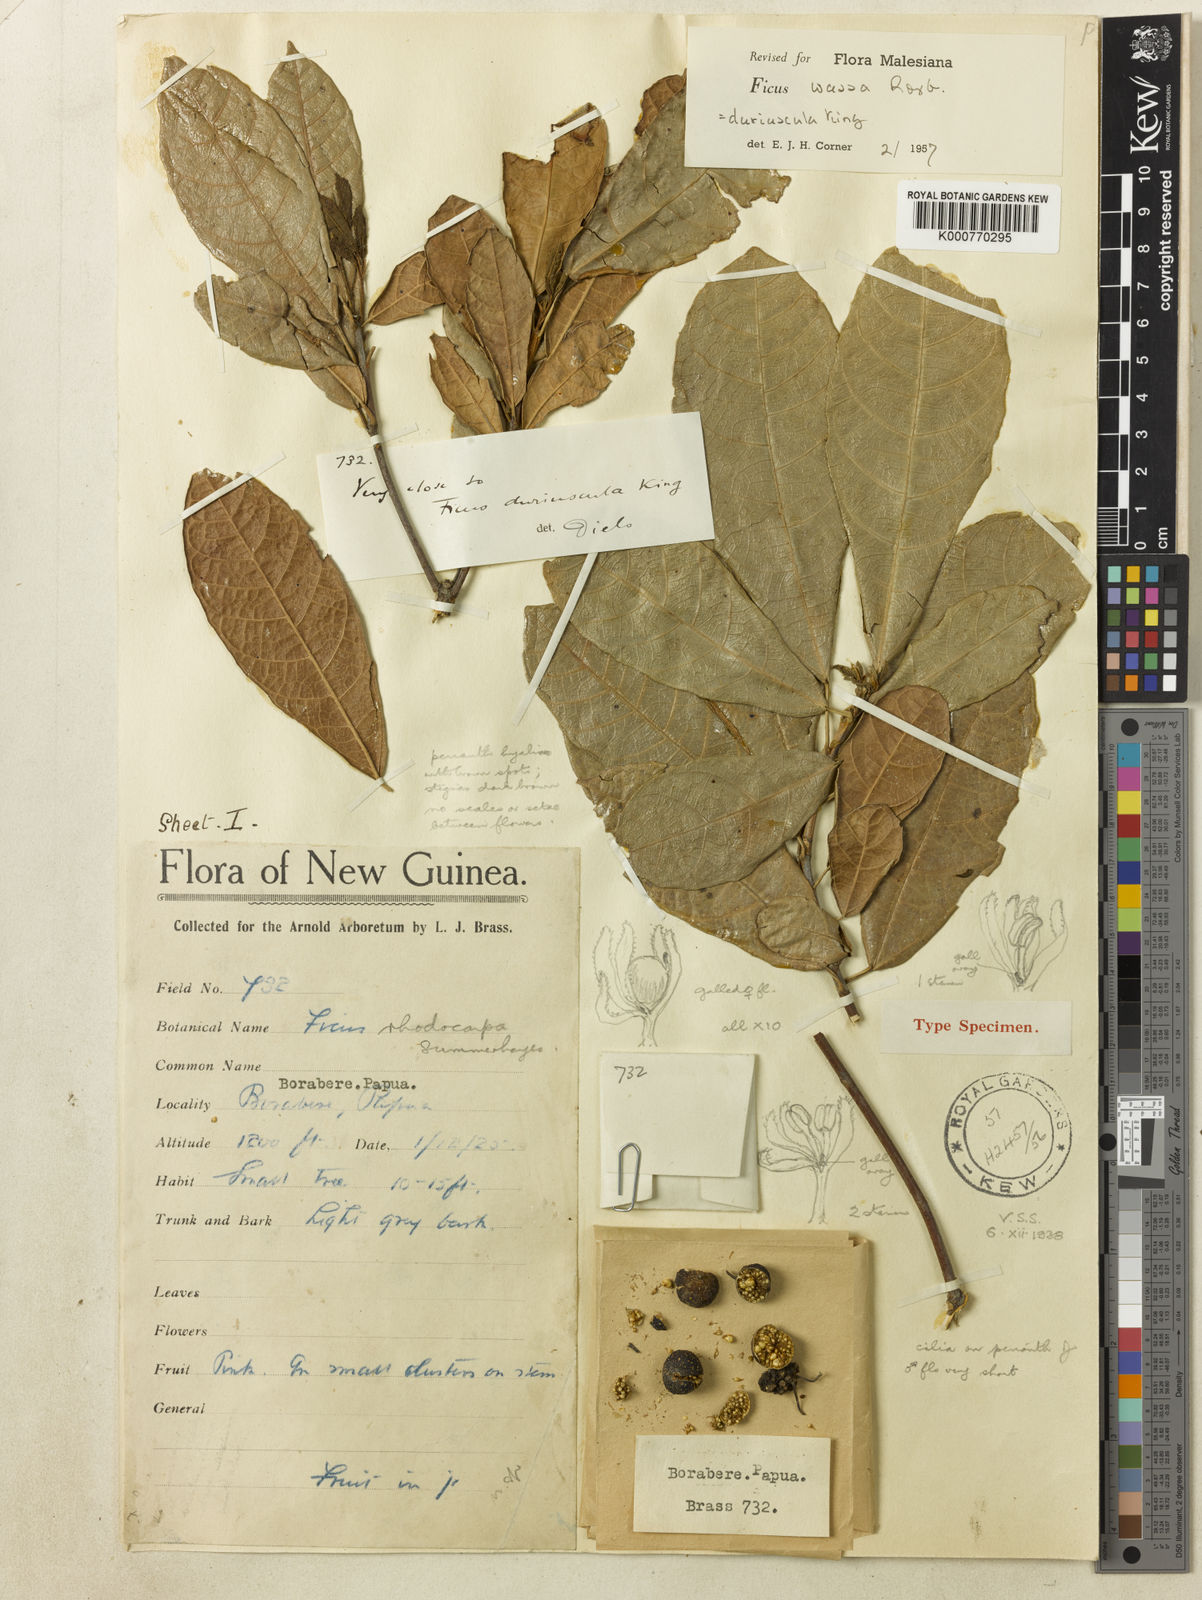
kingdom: Plantae
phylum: Tracheophyta
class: Magnoliopsida
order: Rosales
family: Moraceae
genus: Ficus
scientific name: Ficus wassa
